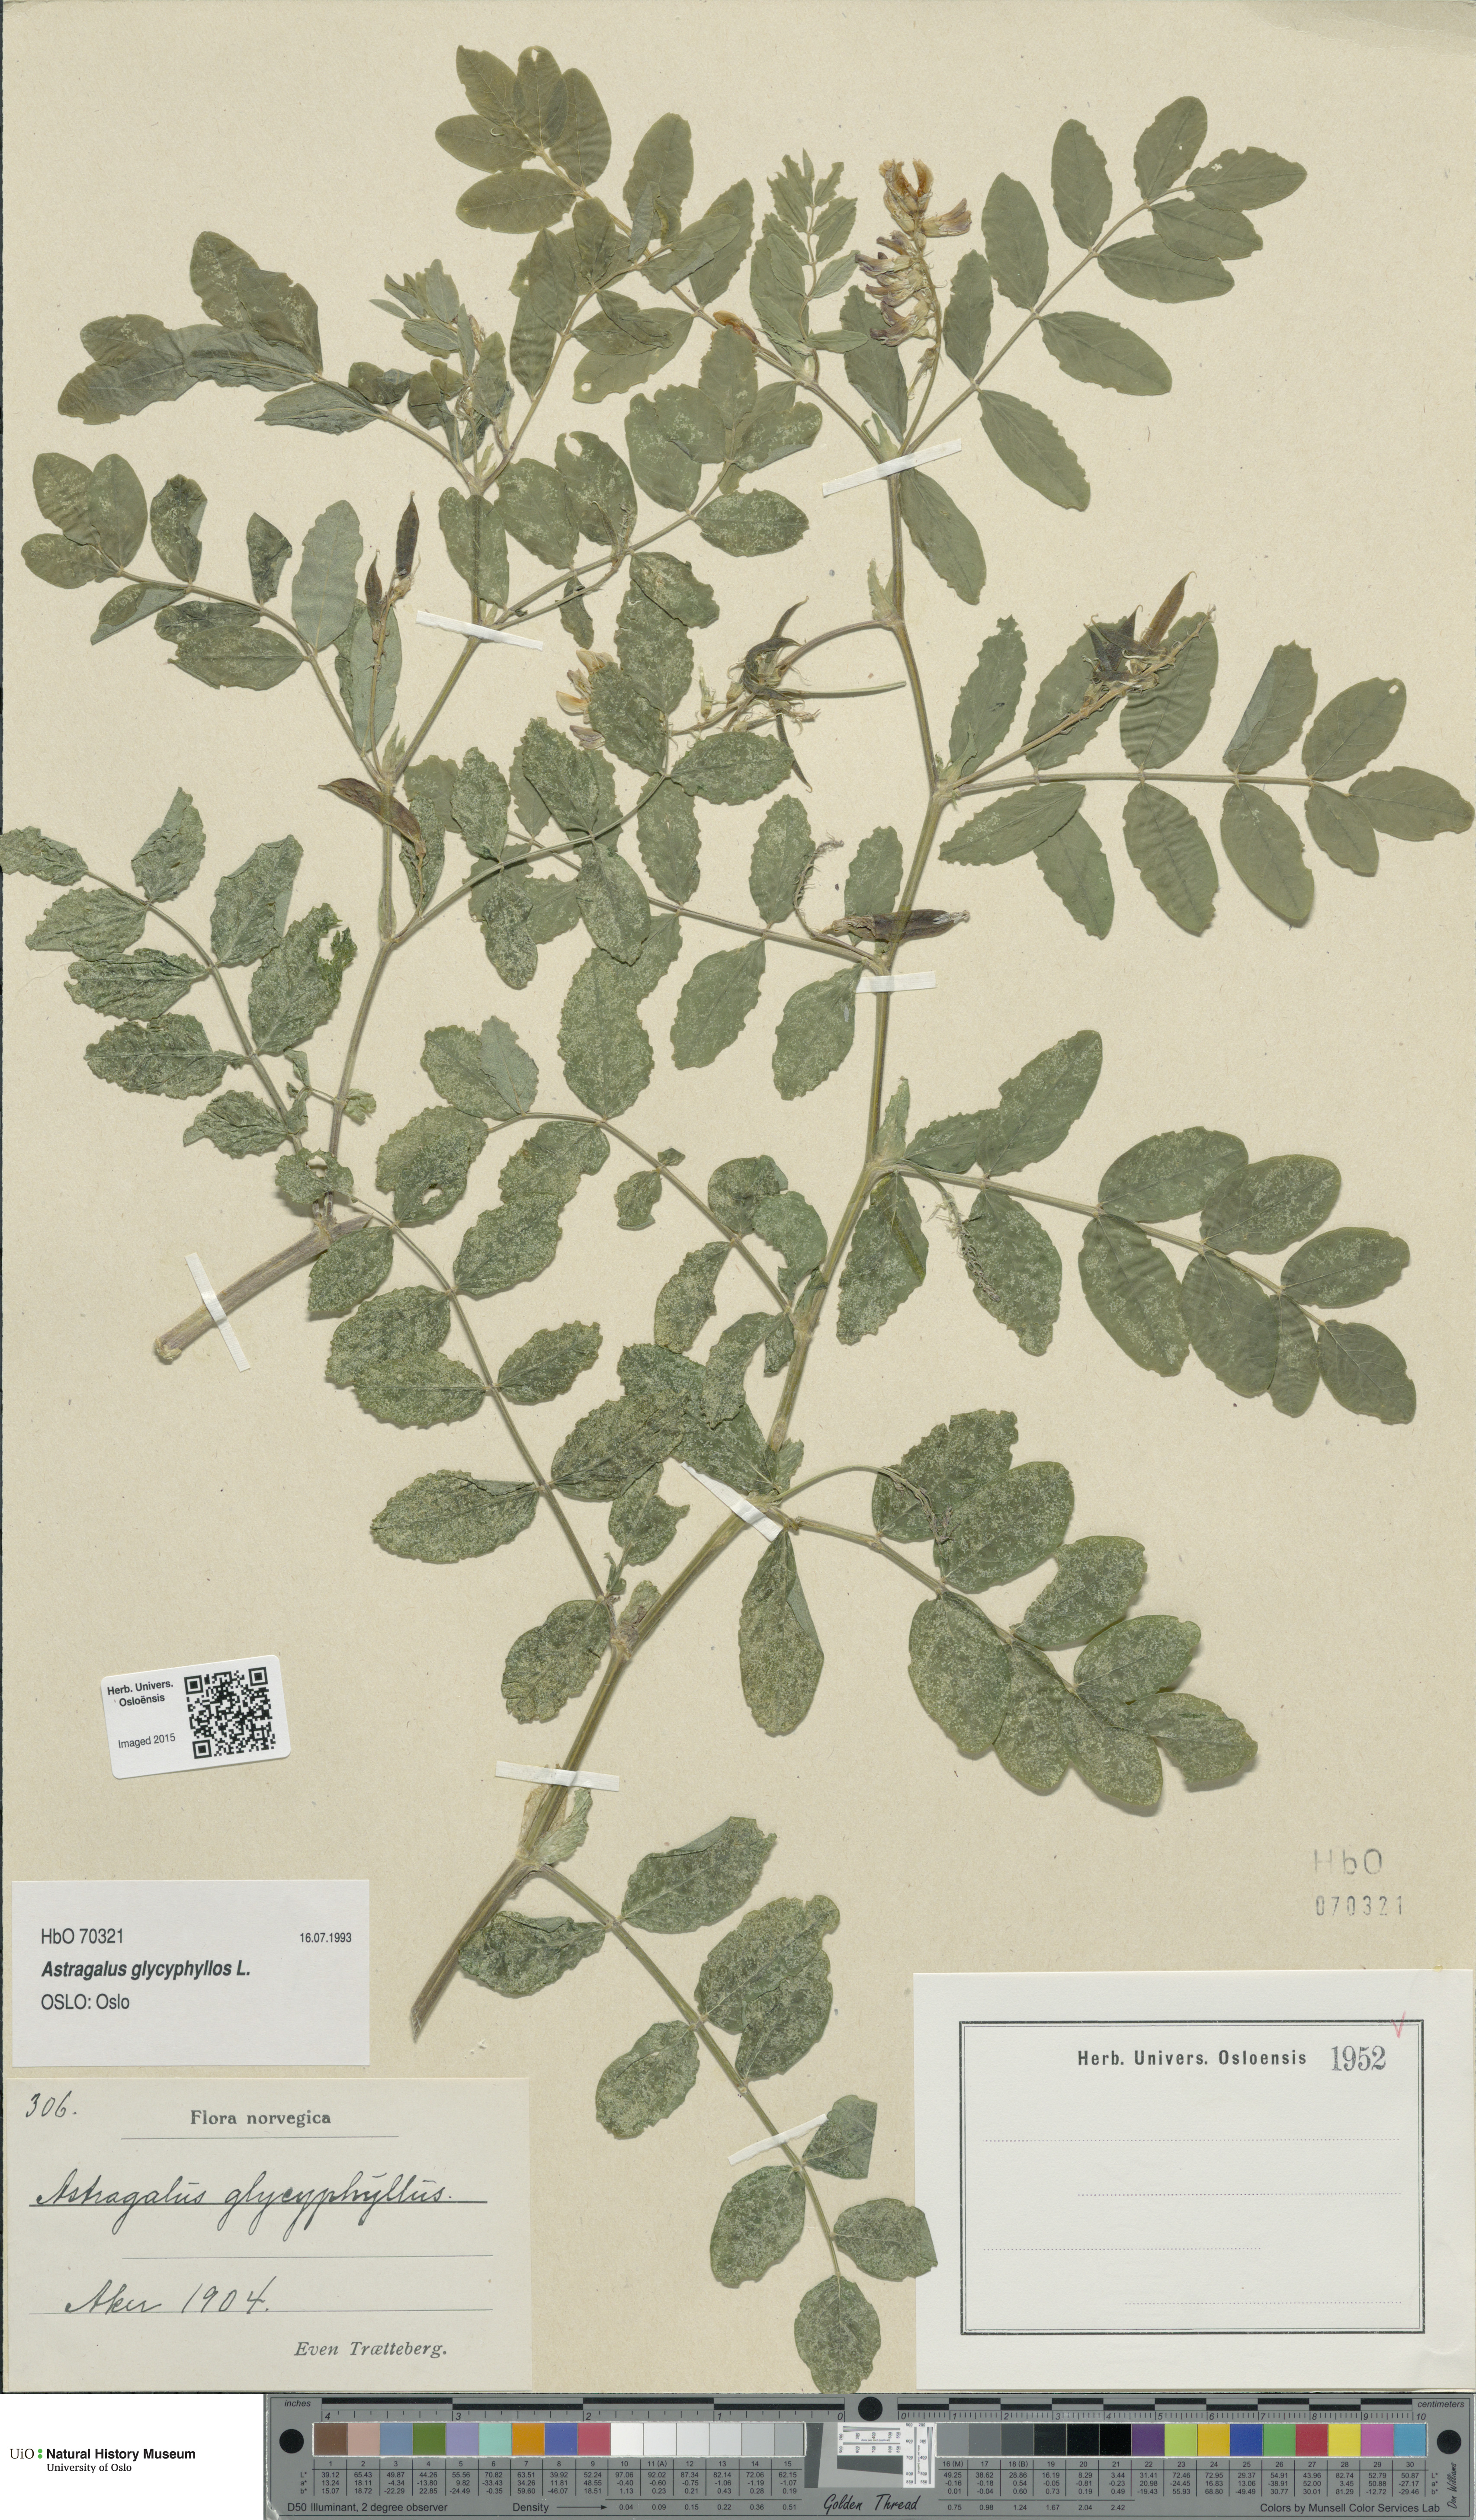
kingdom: Plantae
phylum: Tracheophyta
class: Magnoliopsida
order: Fabales
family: Fabaceae
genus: Astragalus
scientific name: Astragalus glycyphyllos
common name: Wild liquorice
